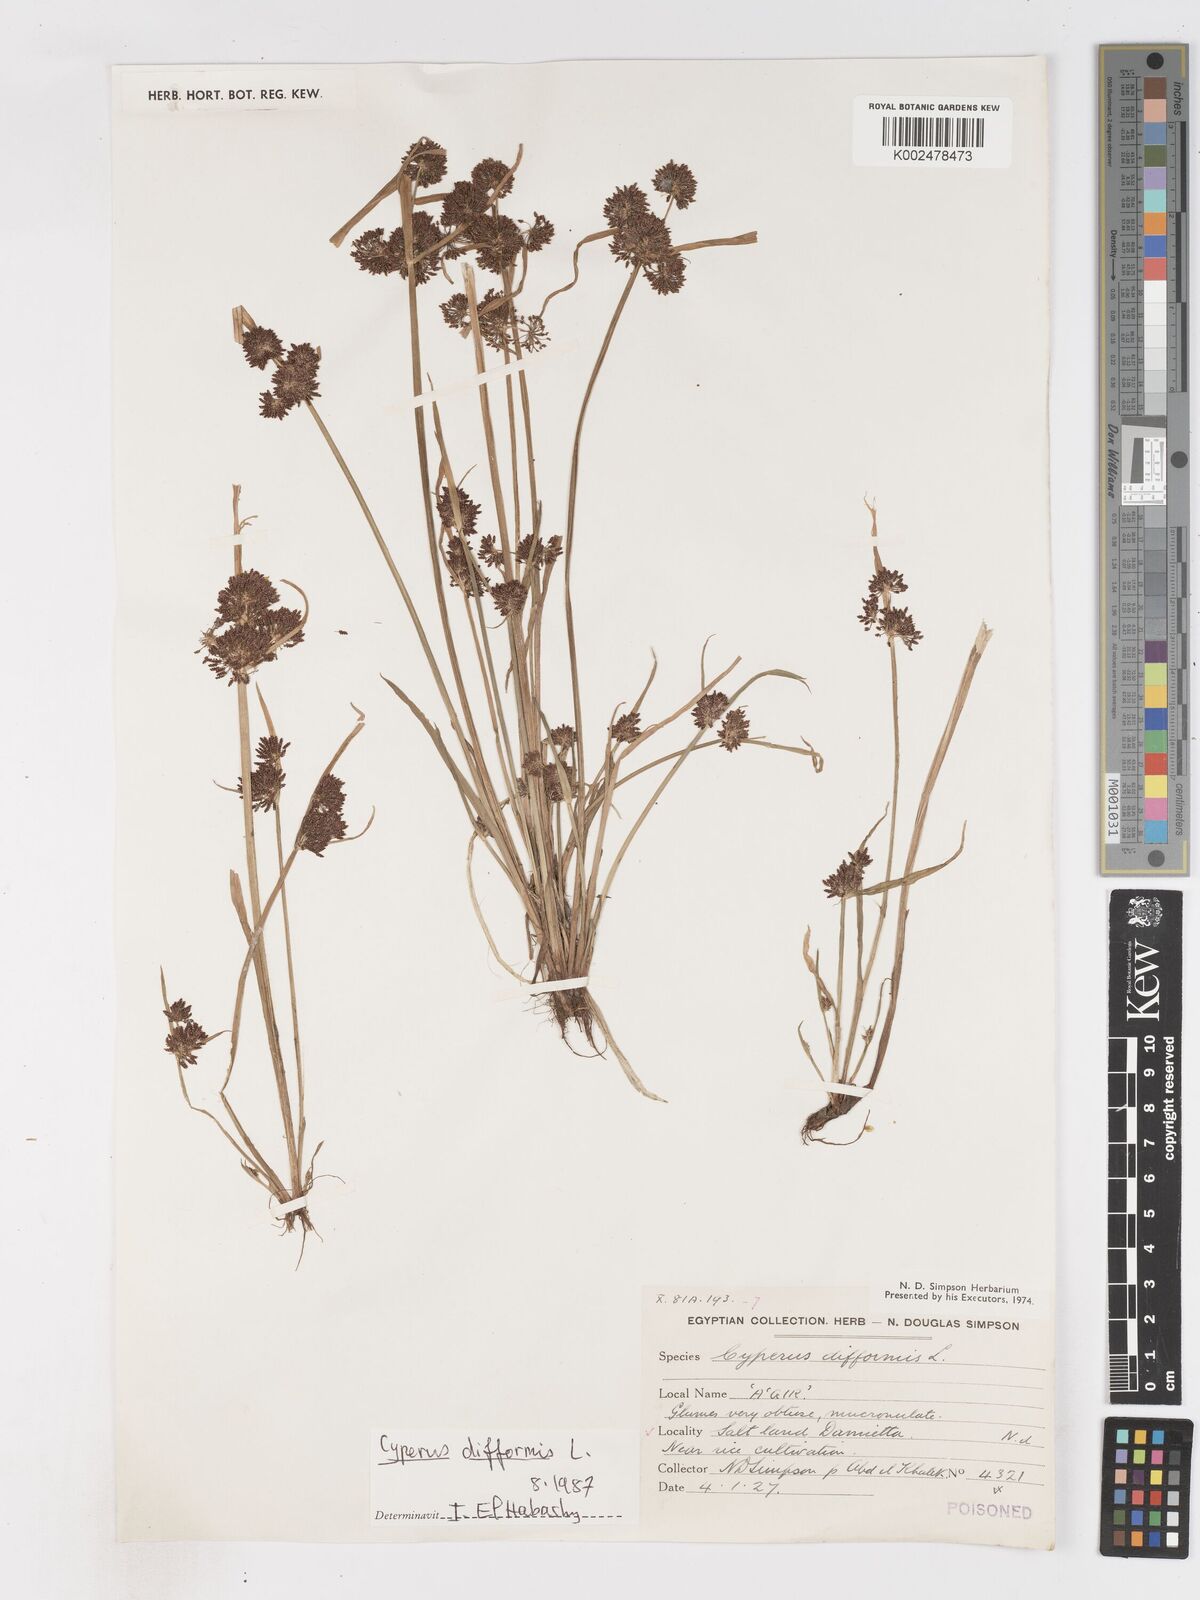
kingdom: Plantae
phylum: Tracheophyta
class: Liliopsida
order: Poales
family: Cyperaceae
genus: Cyperus
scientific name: Cyperus difformis
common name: Variable flatsedge
